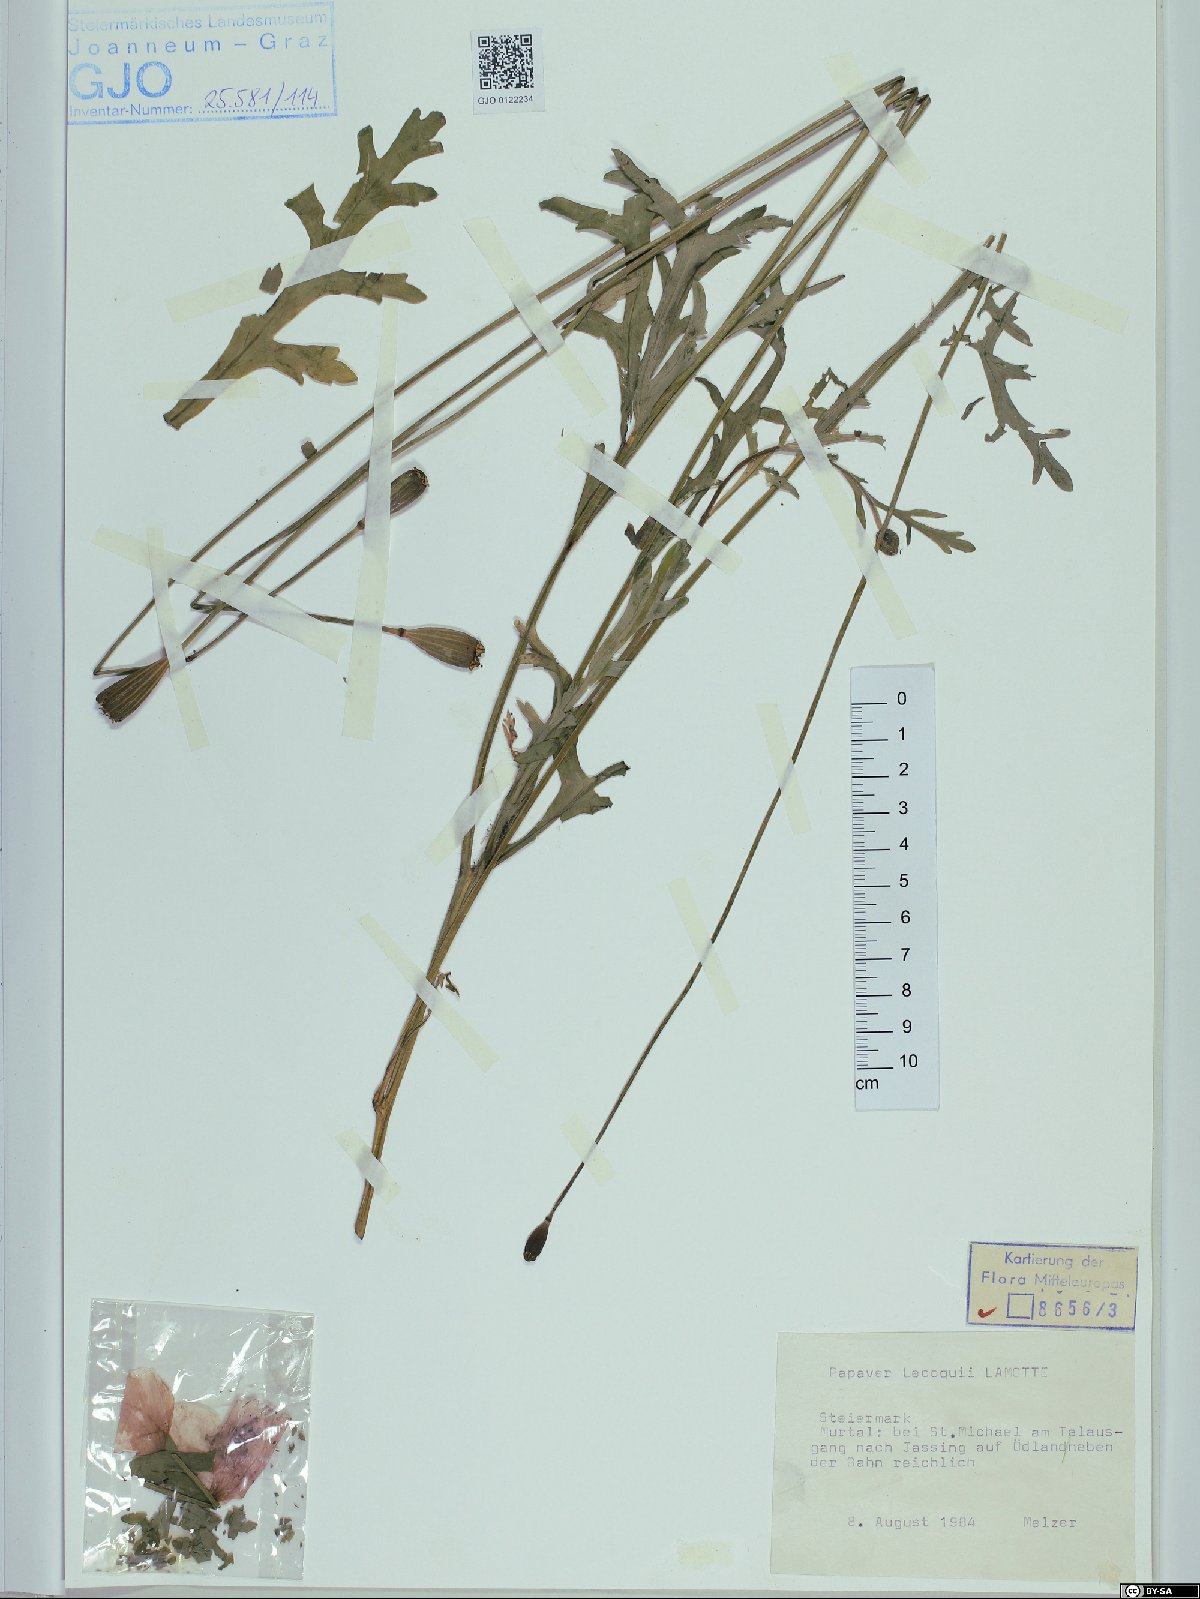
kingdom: Plantae
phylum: Tracheophyta
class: Magnoliopsida
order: Ranunculales
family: Papaveraceae
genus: Papaver
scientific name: Papaver lecoqii
